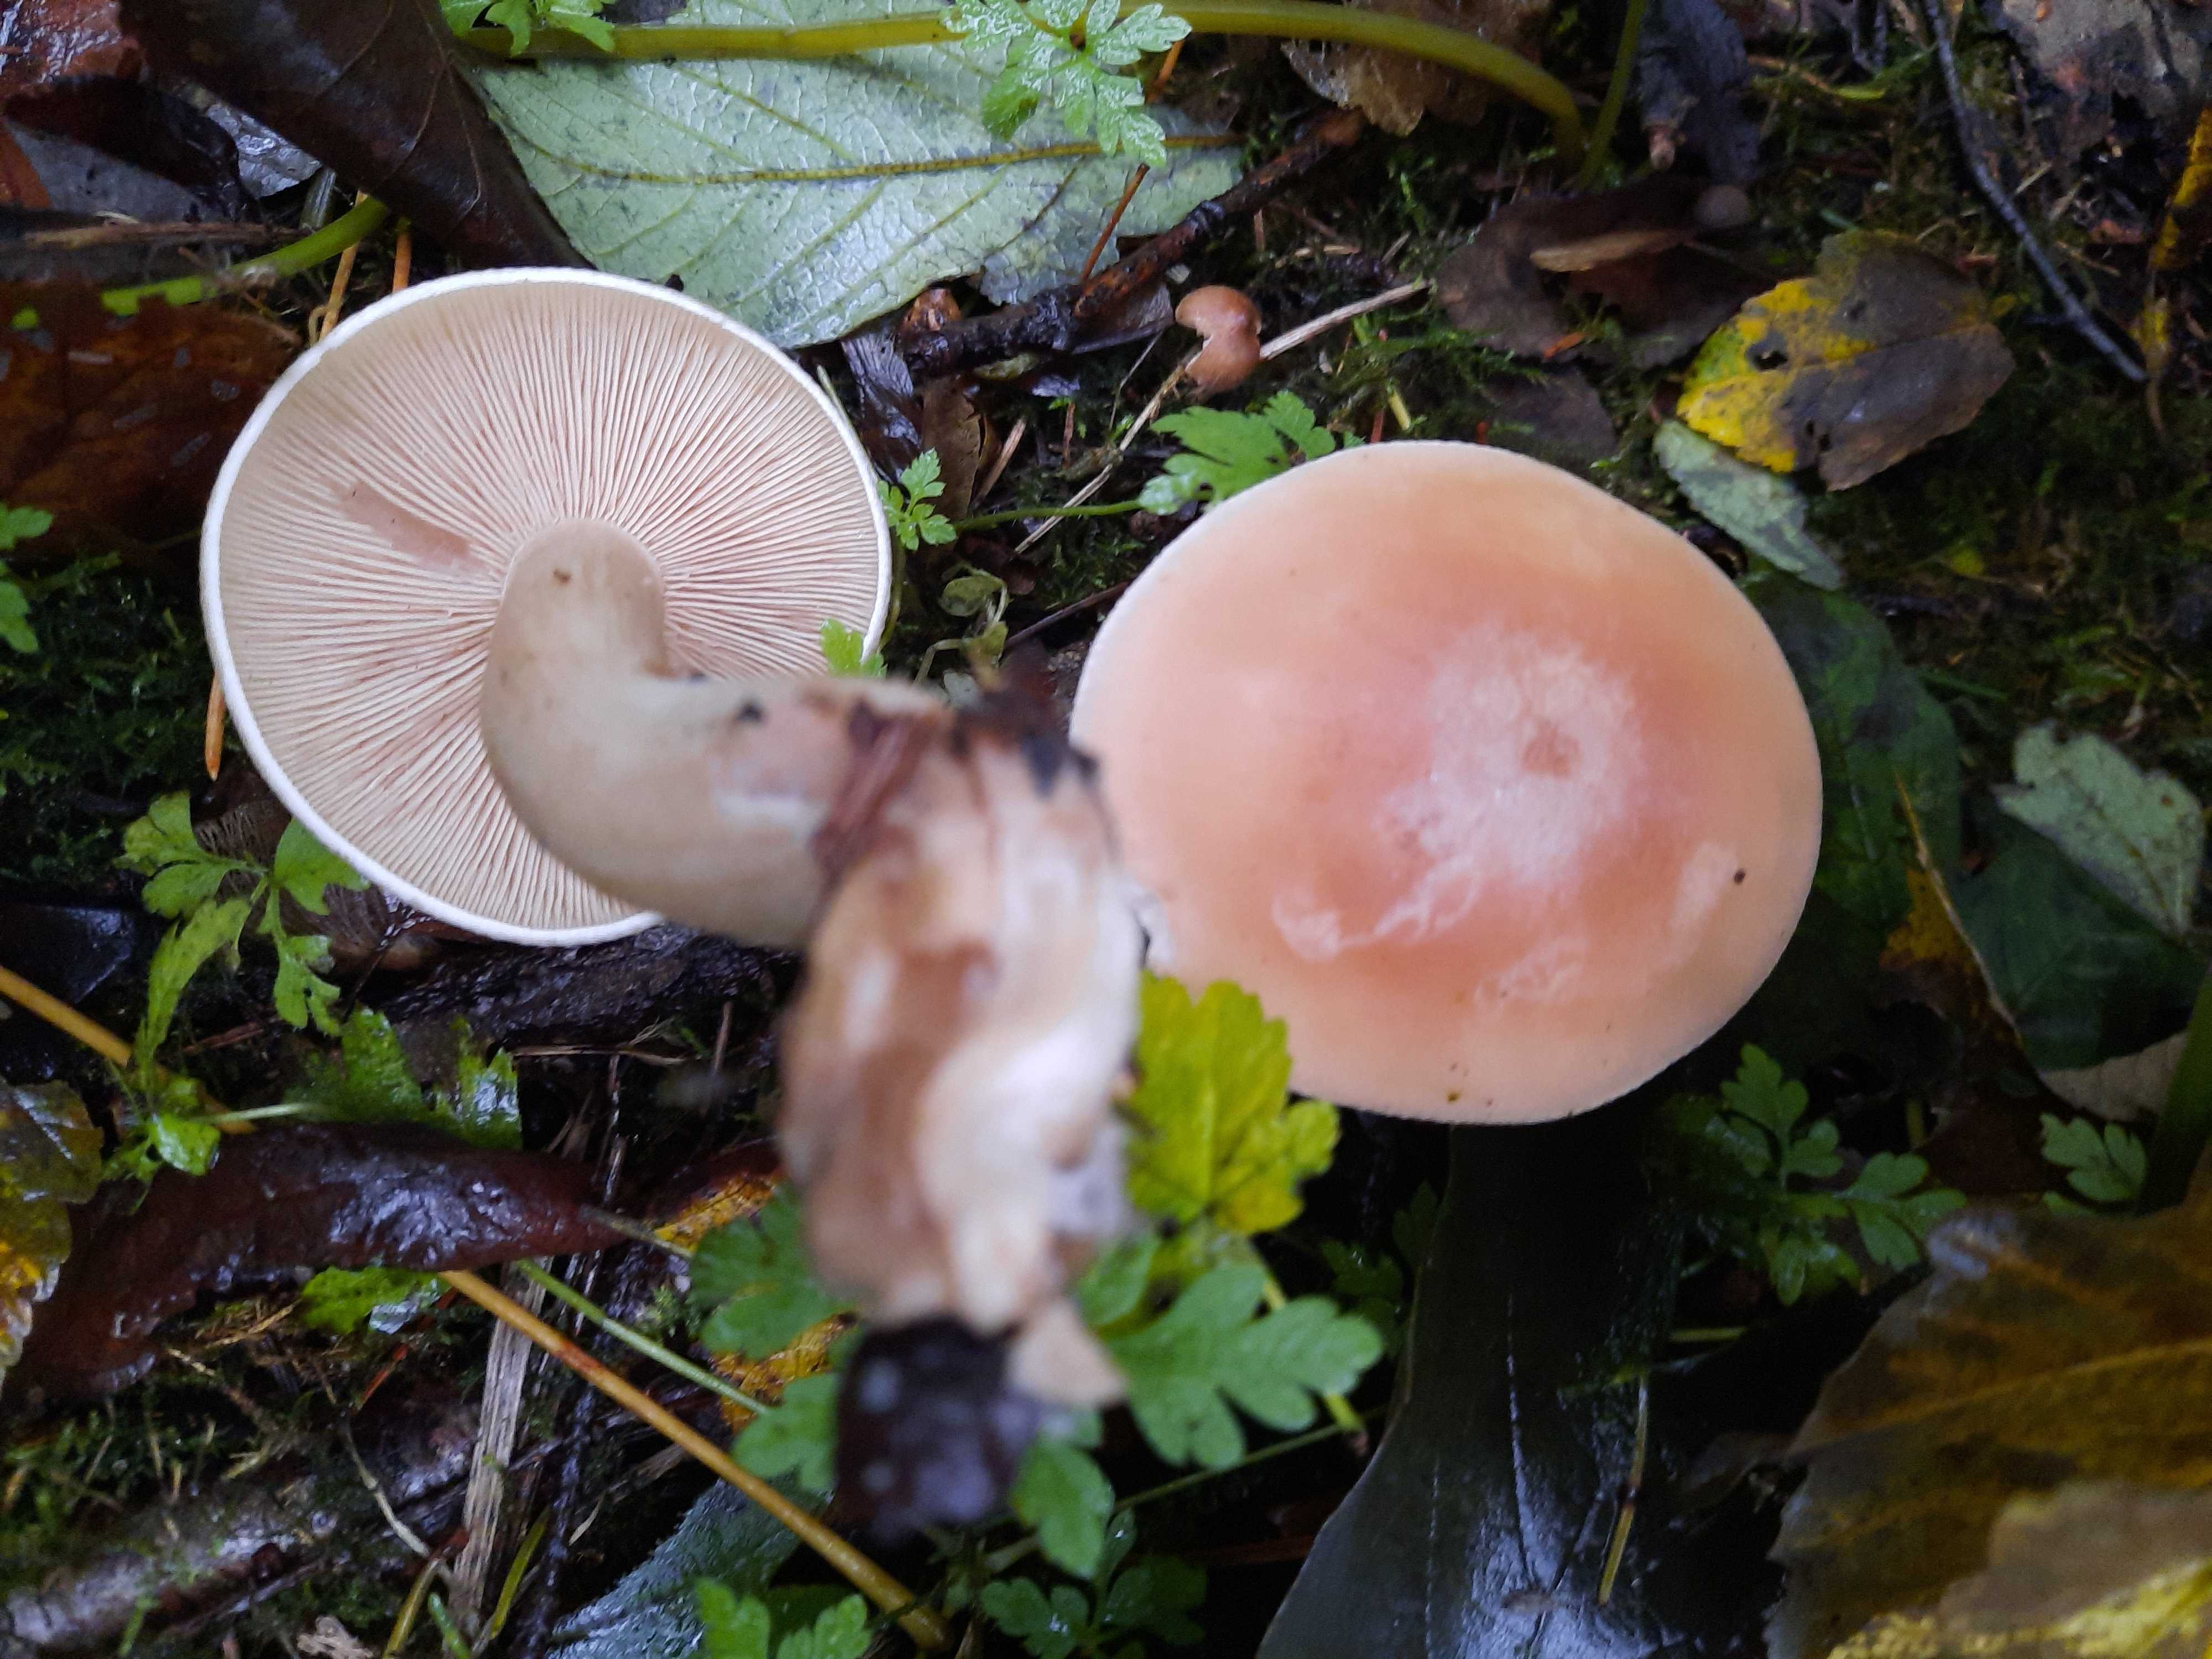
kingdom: Fungi
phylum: Basidiomycota
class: Agaricomycetes
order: Agaricales
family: Tricholomataceae
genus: Lepista
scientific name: Lepista irina
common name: violduftende hekseringshat
